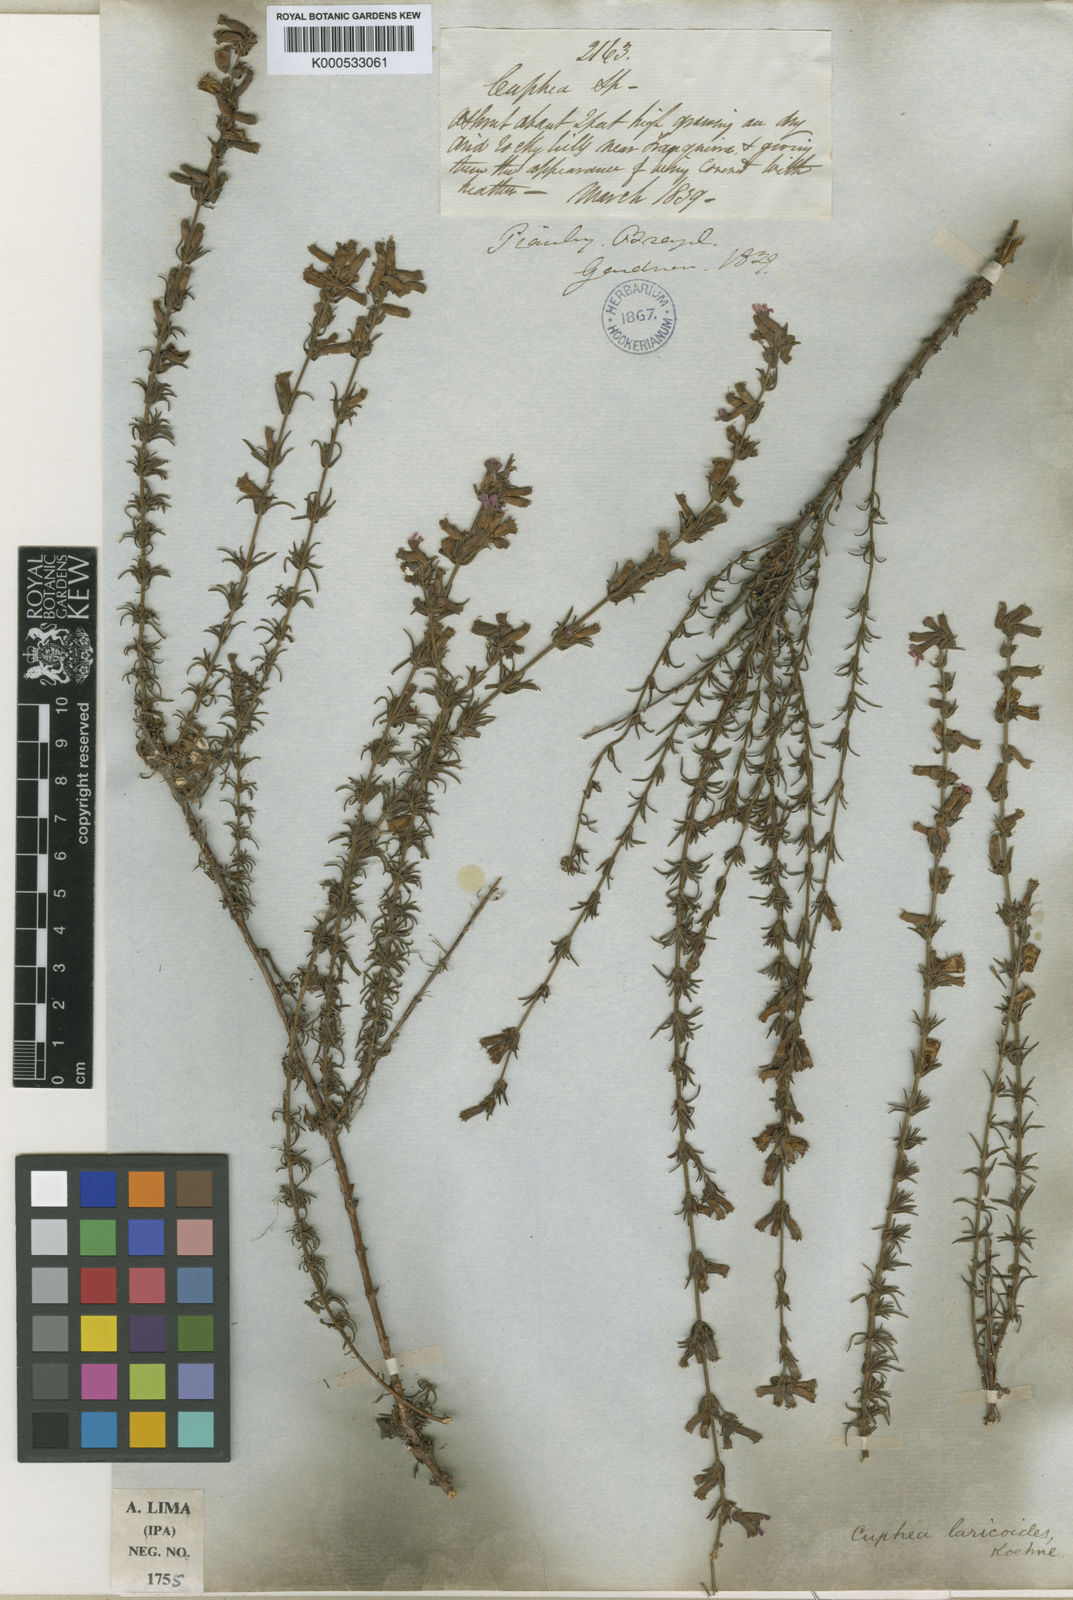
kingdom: Plantae
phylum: Tracheophyta
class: Magnoliopsida
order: Myrtales
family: Lythraceae
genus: Cuphea
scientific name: Cuphea laricoides
